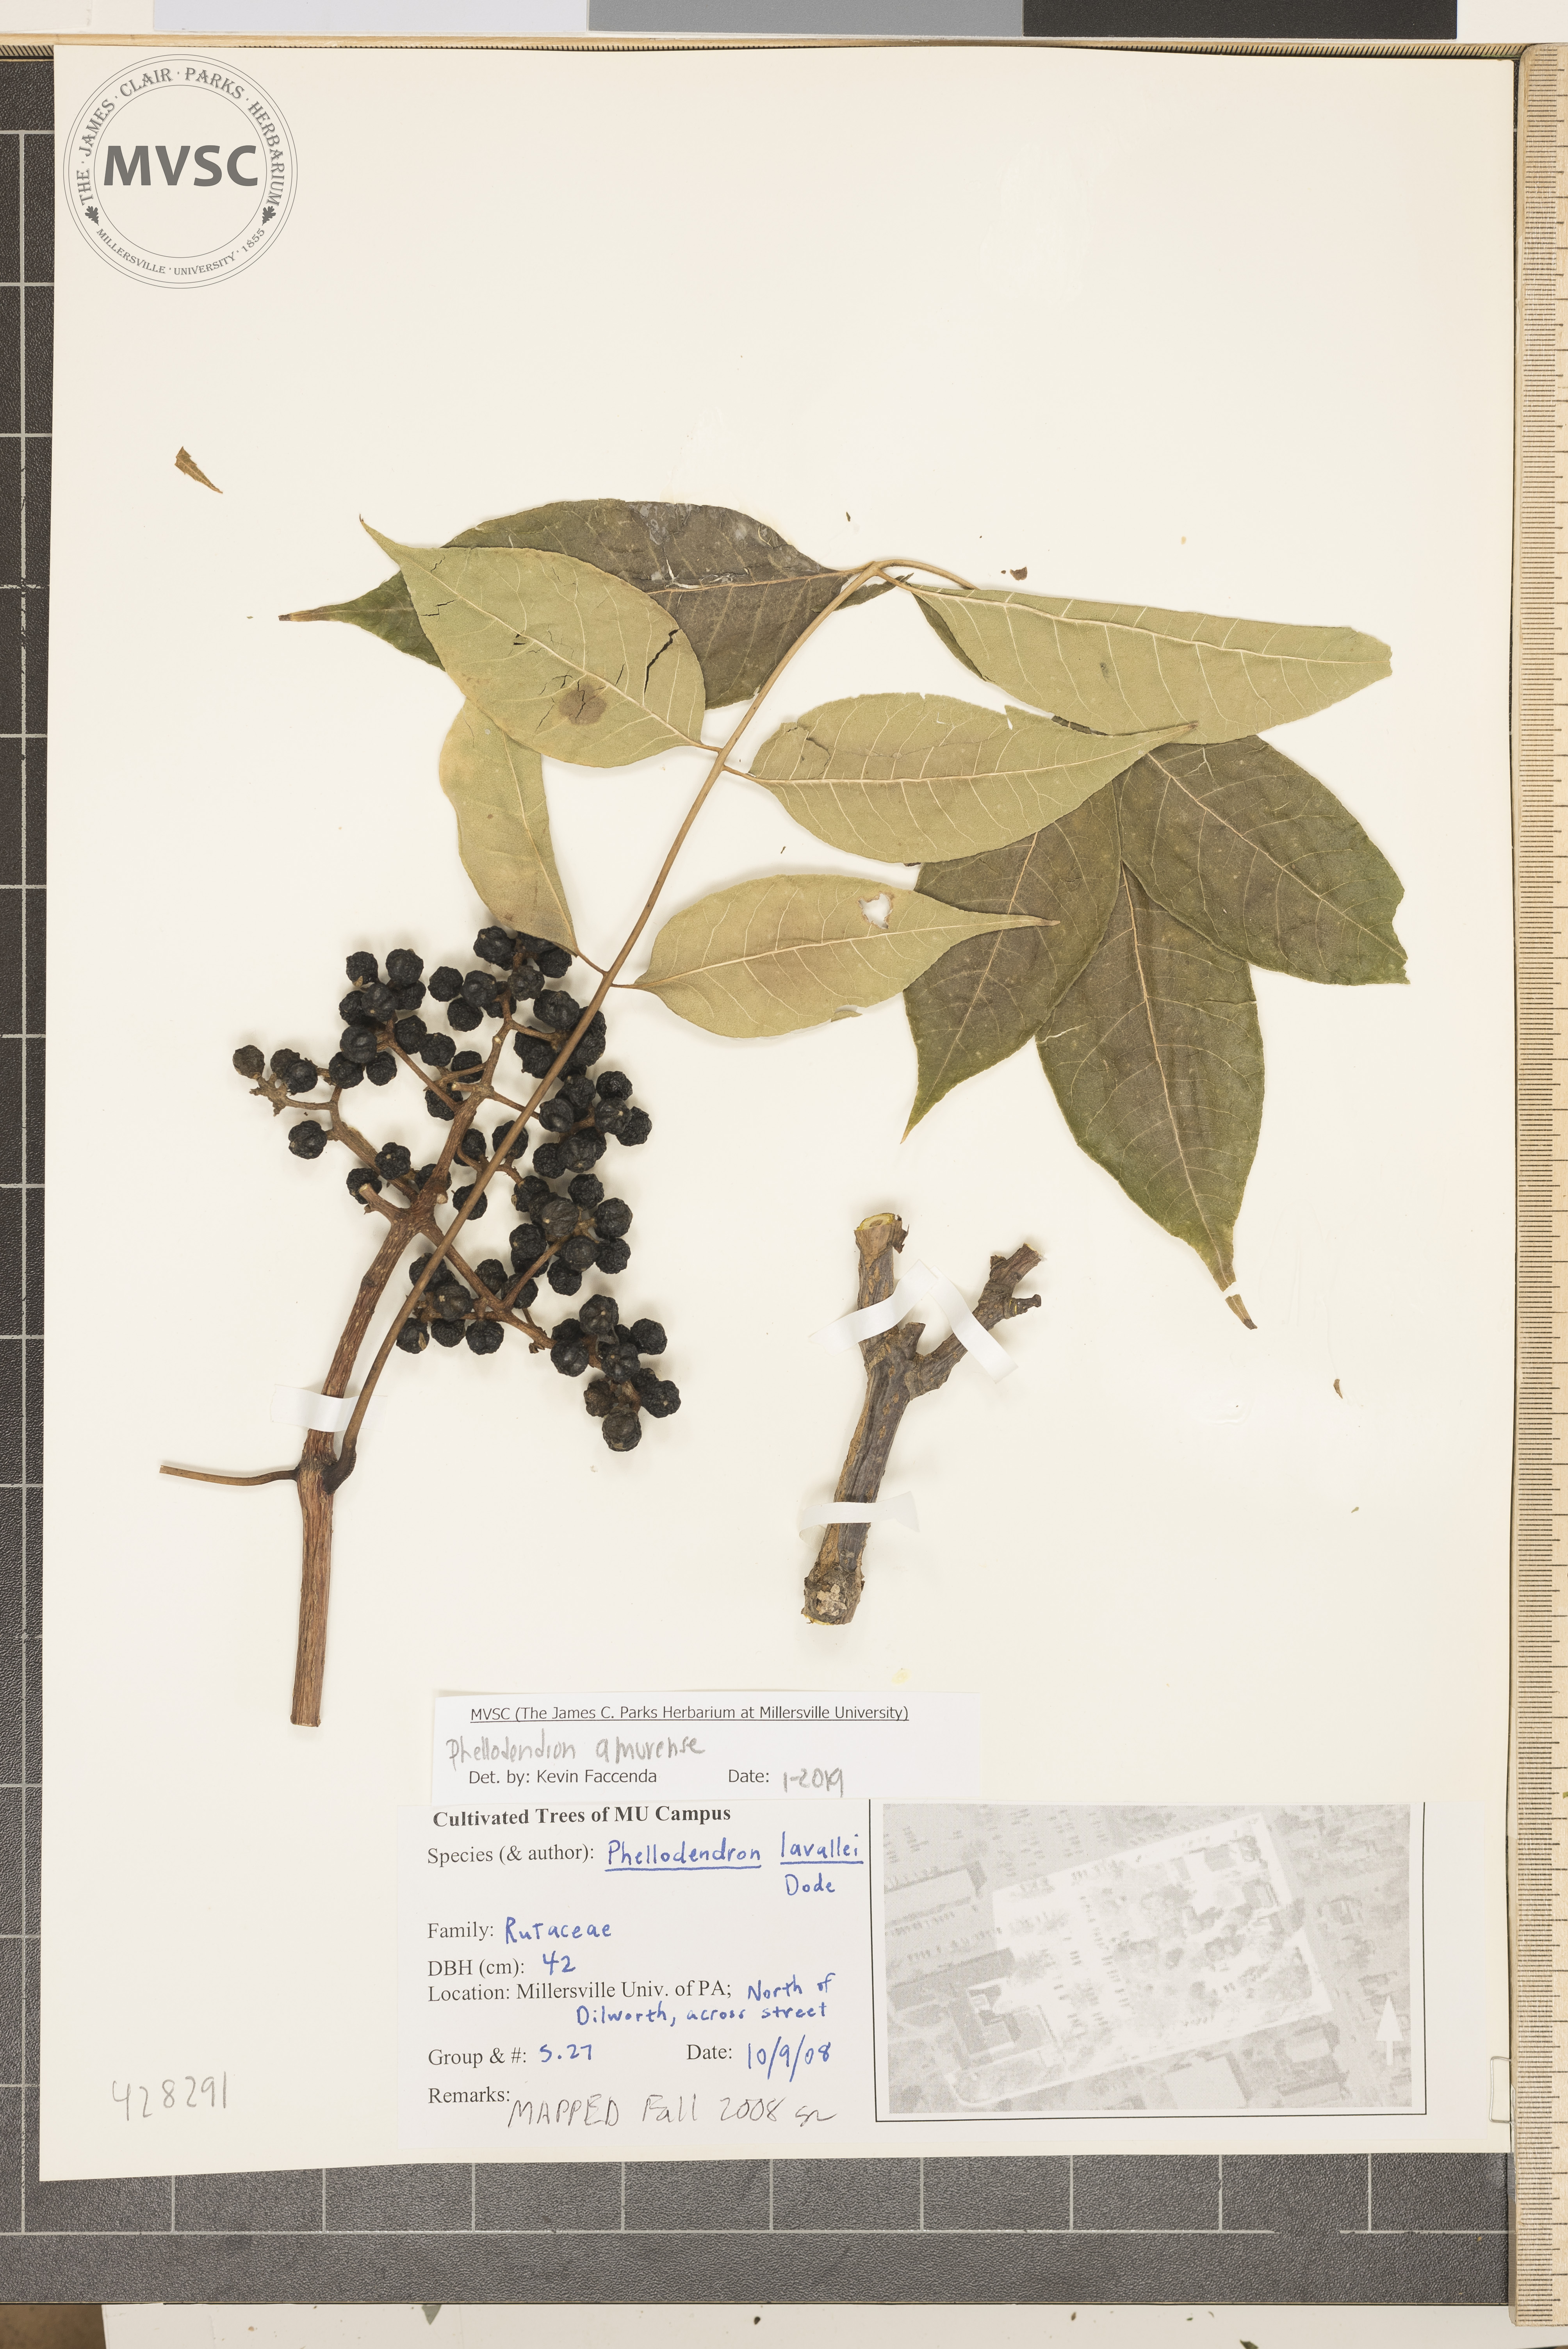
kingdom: Plantae
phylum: Tracheophyta
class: Magnoliopsida
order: Sapindales
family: Rutaceae
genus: Phellodendron
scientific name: Phellodendron amurense
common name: Amur corktree
